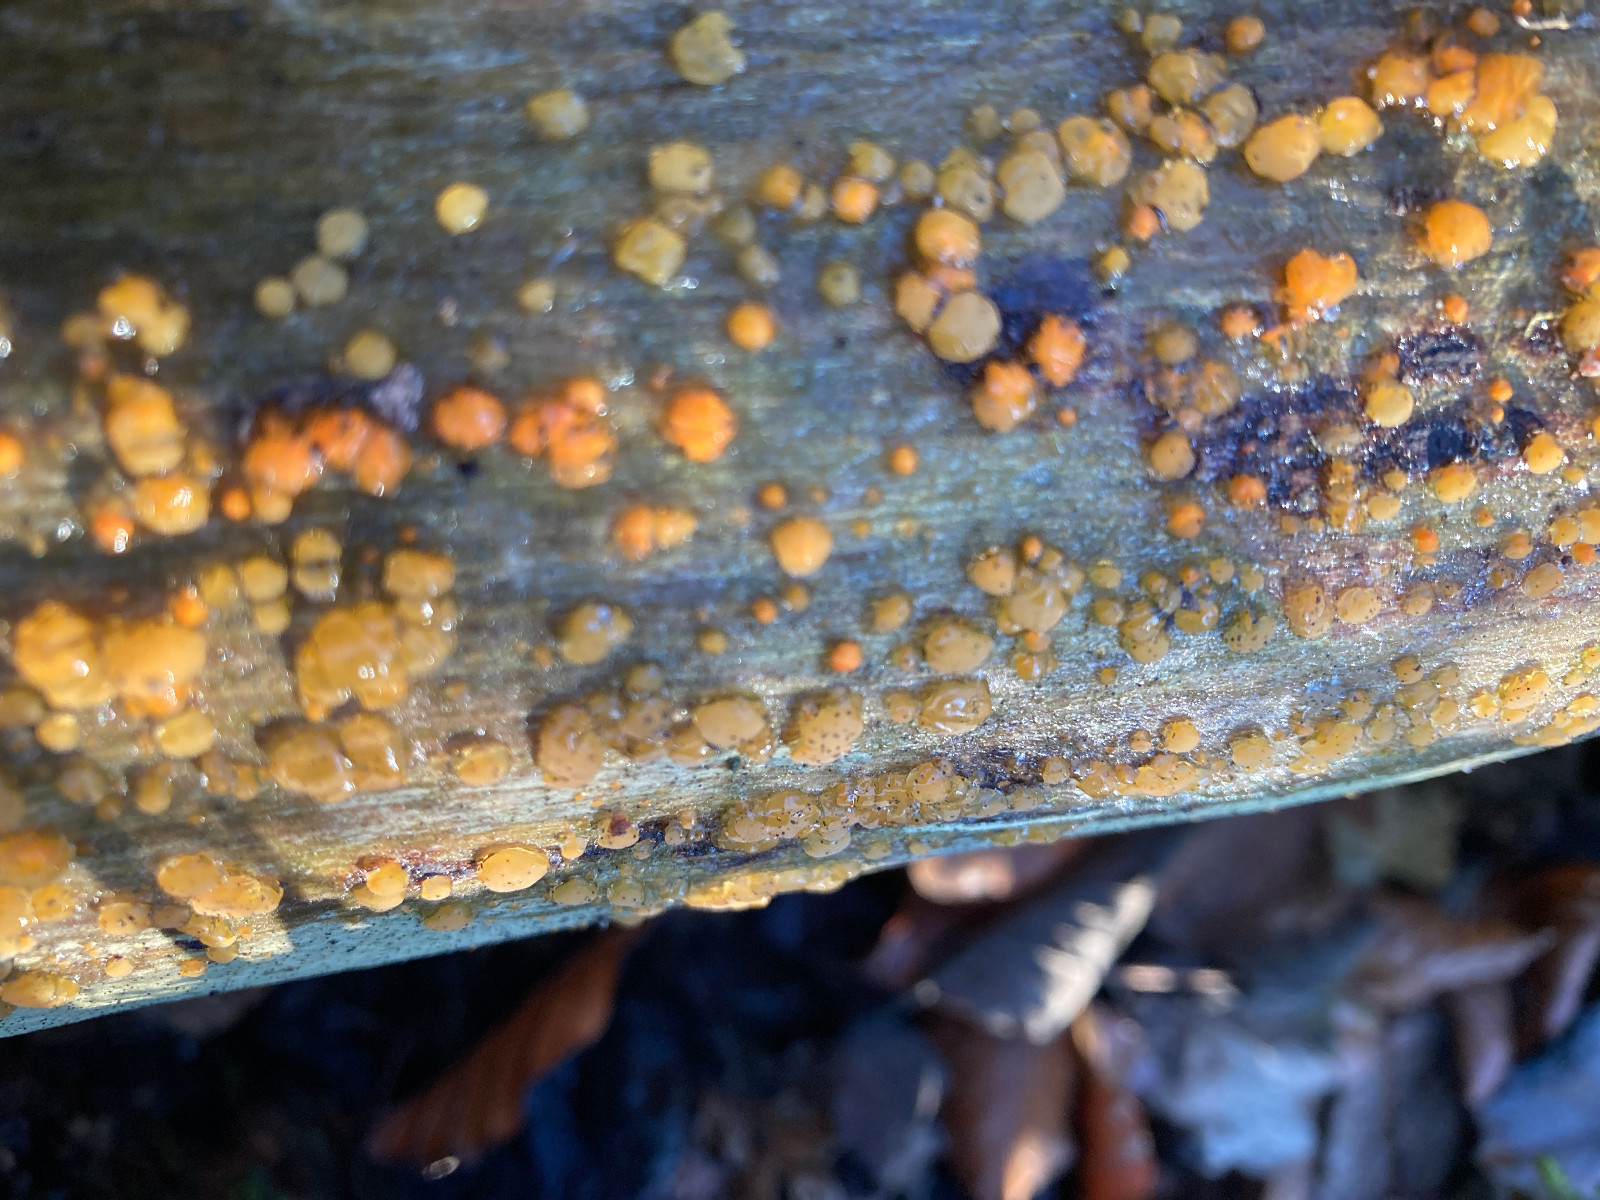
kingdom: Fungi
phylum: Basidiomycota
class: Dacrymycetes
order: Dacrymycetales
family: Dacrymycetaceae
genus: Dacrymyces
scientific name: Dacrymyces stillatus
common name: almindelig tåresvamp
